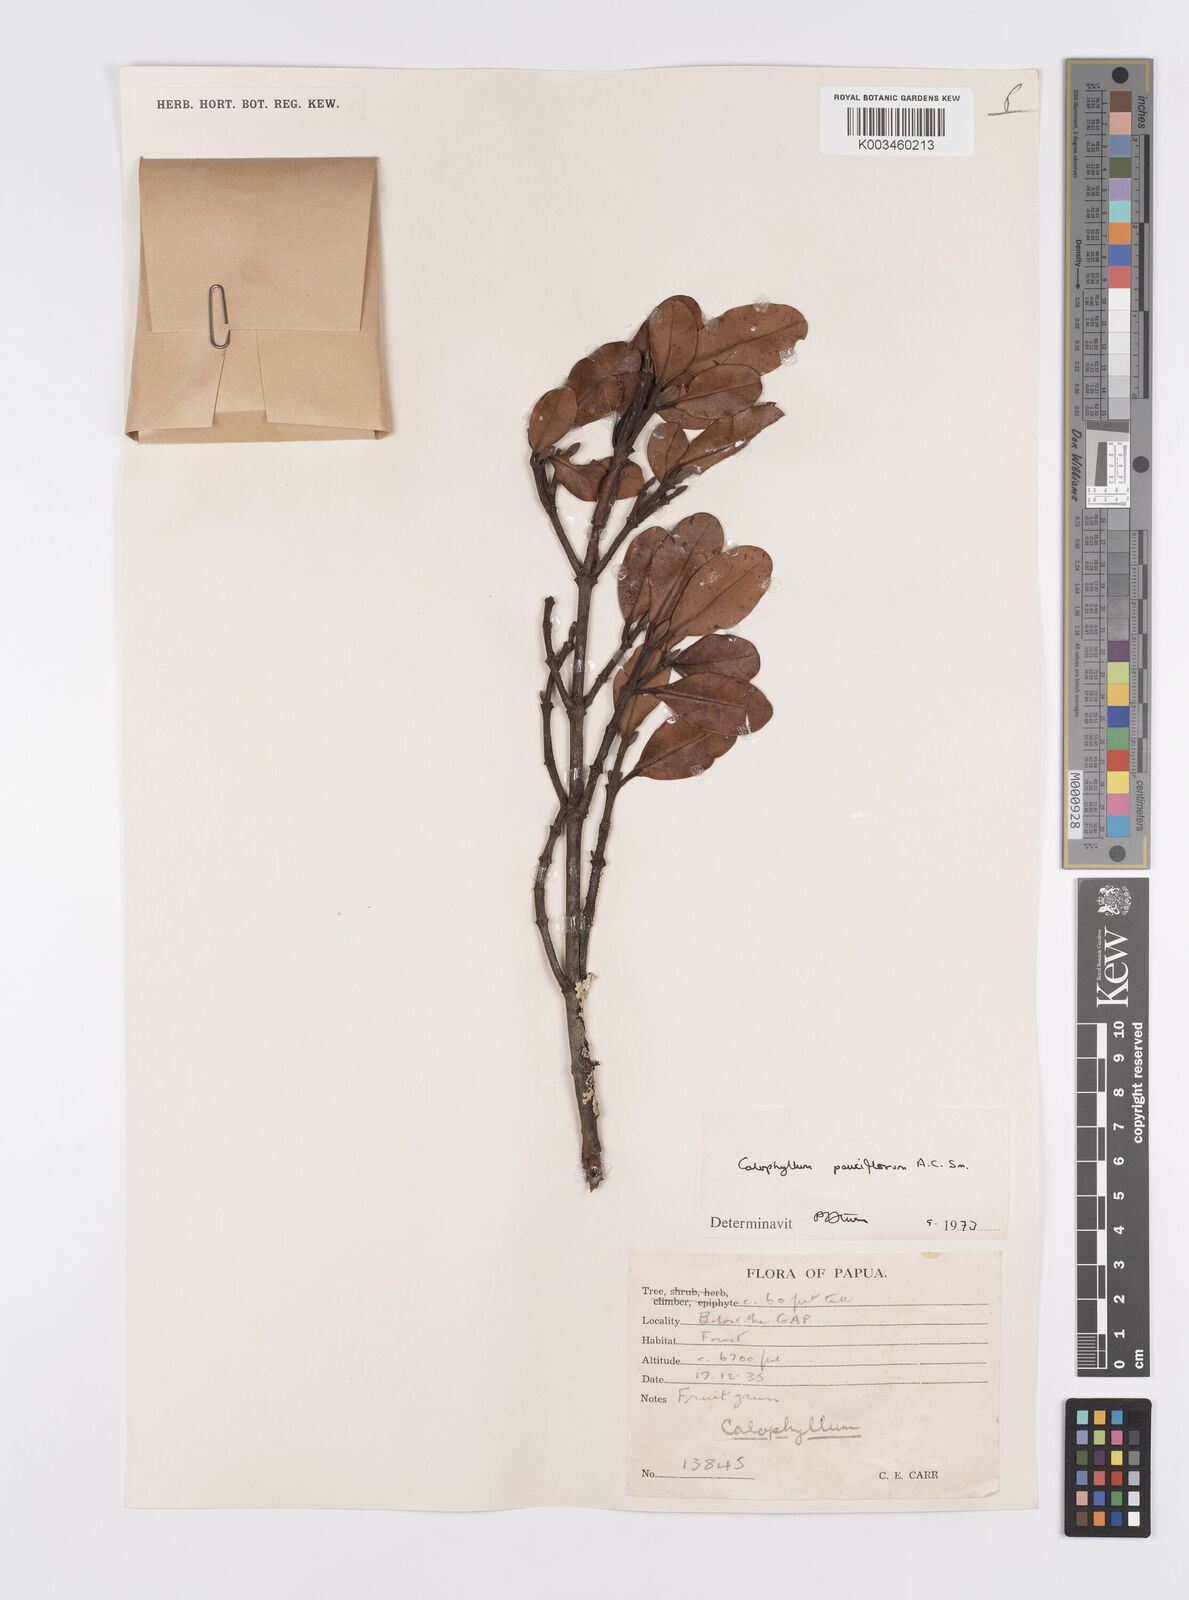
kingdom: Plantae
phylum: Tracheophyta
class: Magnoliopsida
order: Malpighiales
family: Calophyllaceae
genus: Calophyllum
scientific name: Calophyllum parviflorum
